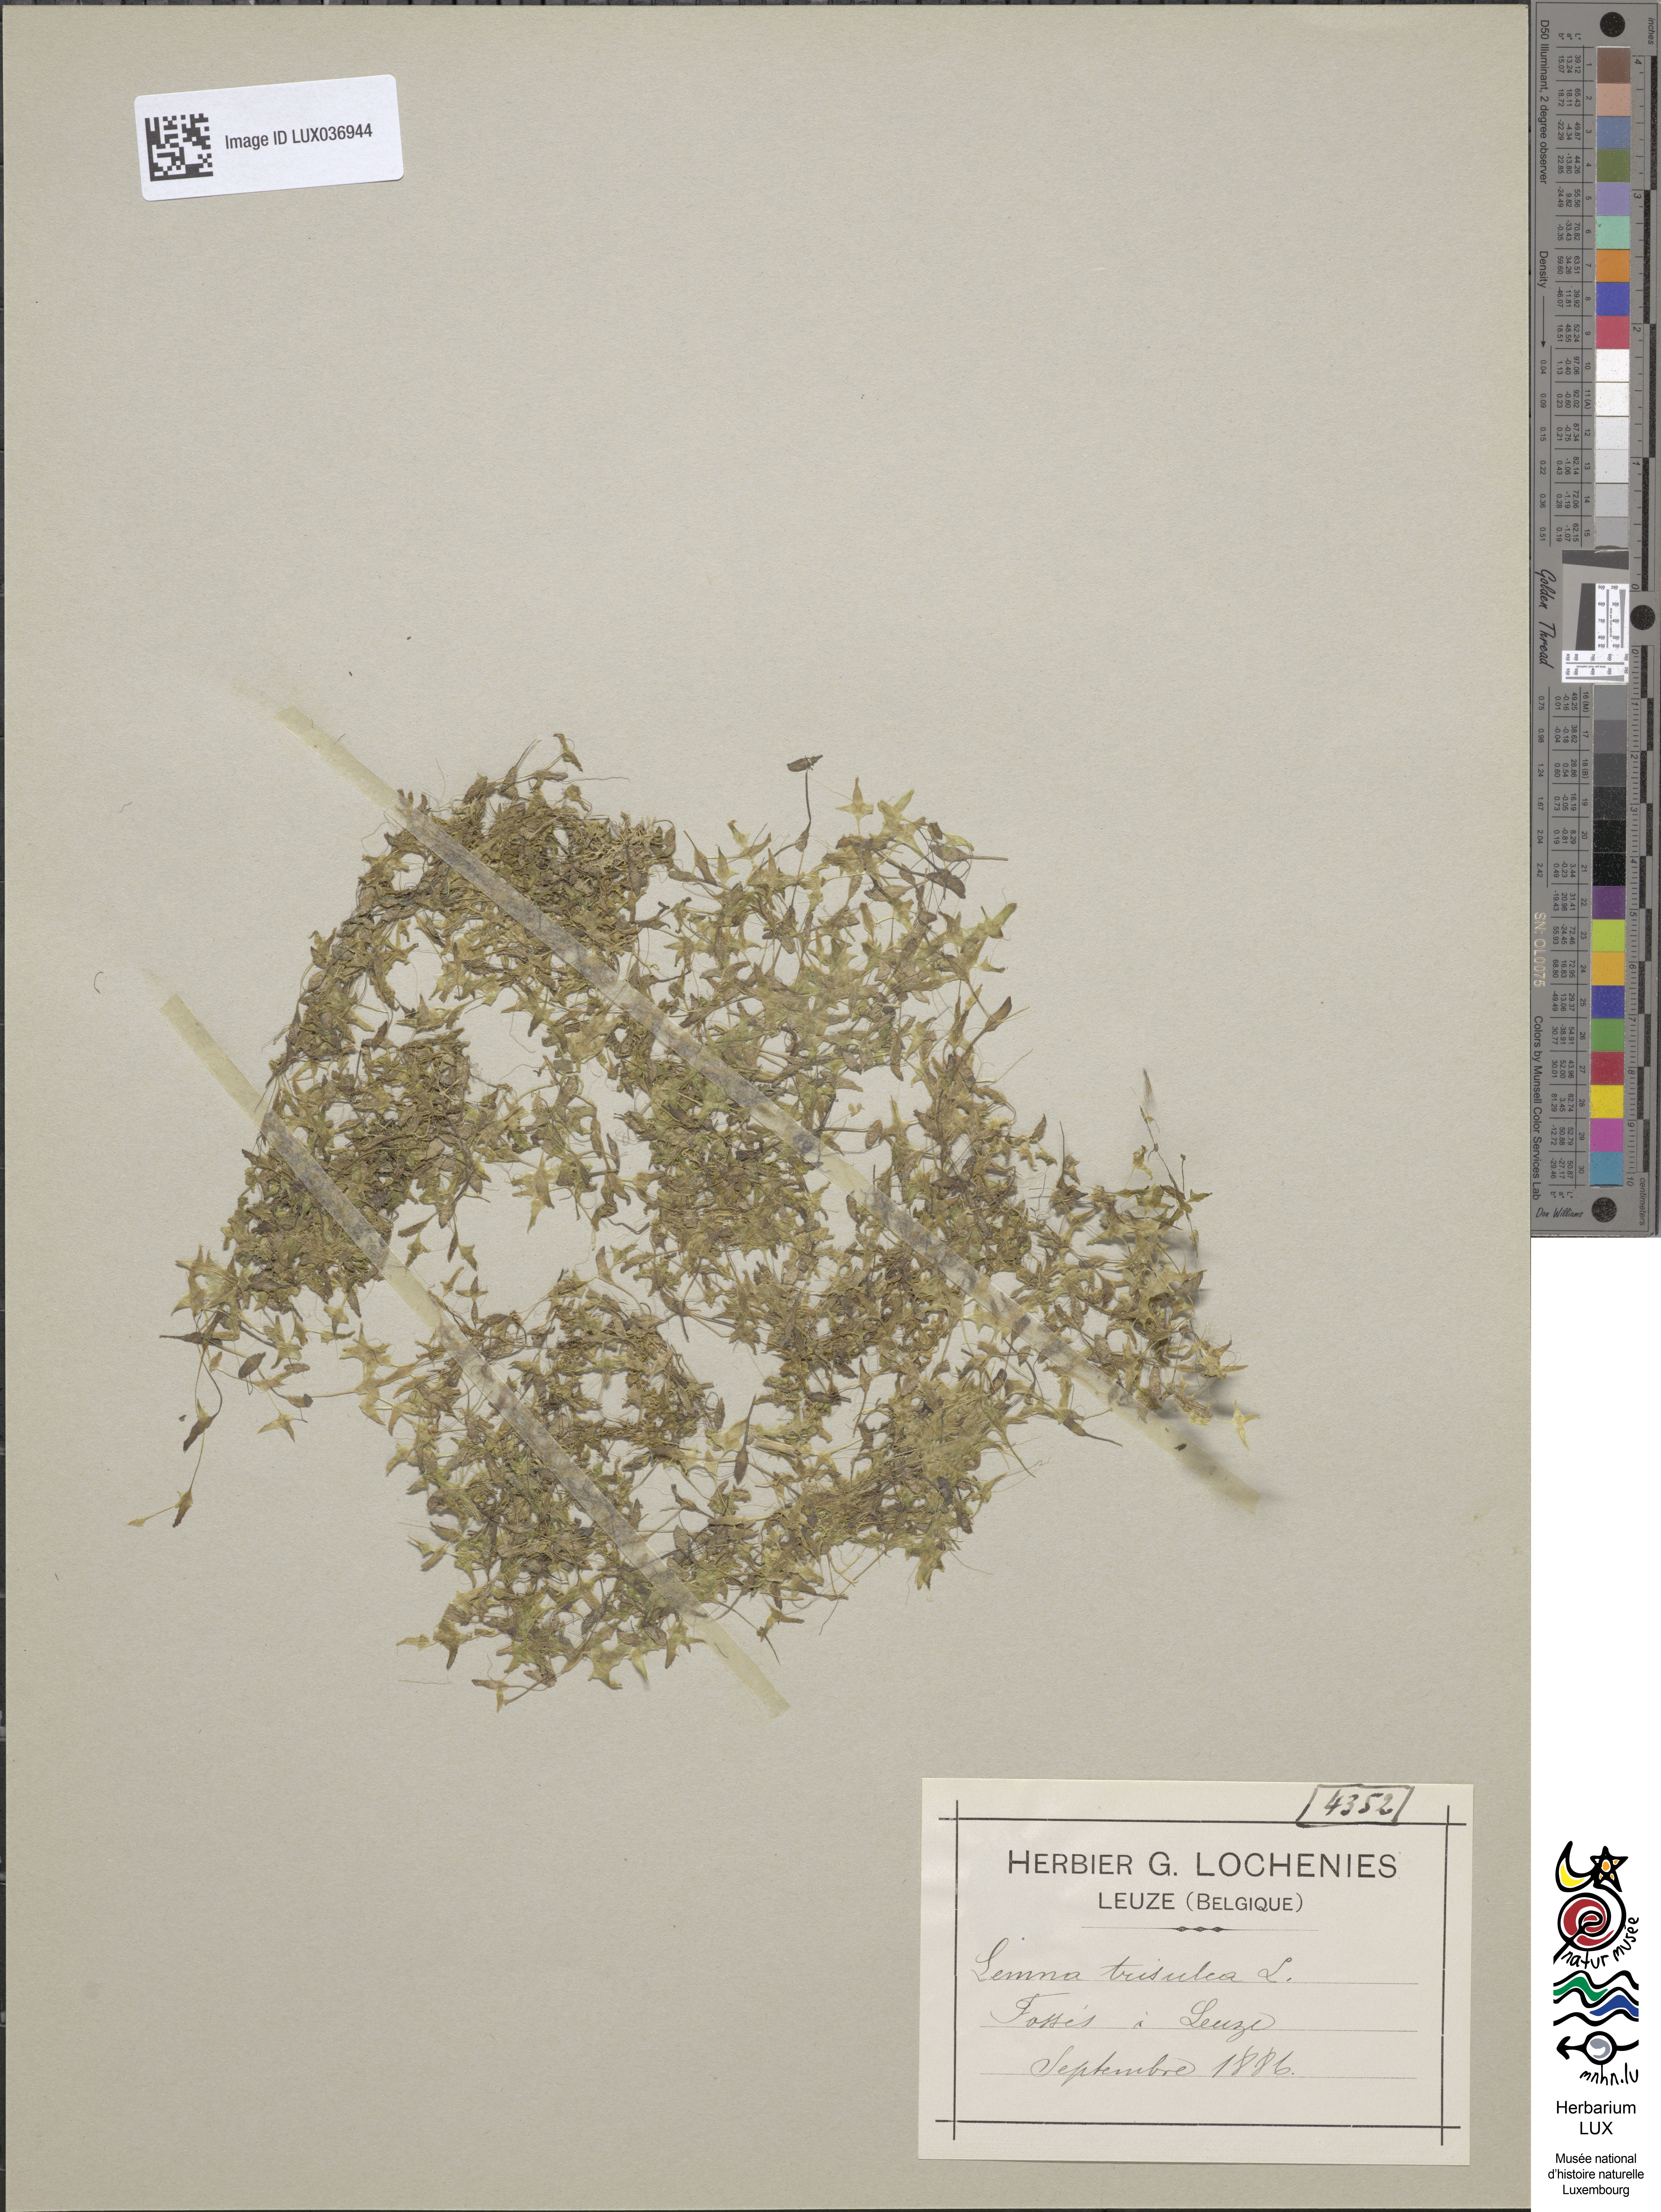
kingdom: Plantae
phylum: Tracheophyta
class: Liliopsida
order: Alismatales
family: Araceae
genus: Lemna
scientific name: Lemna trisulca
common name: Ivy-leaved duckweed
